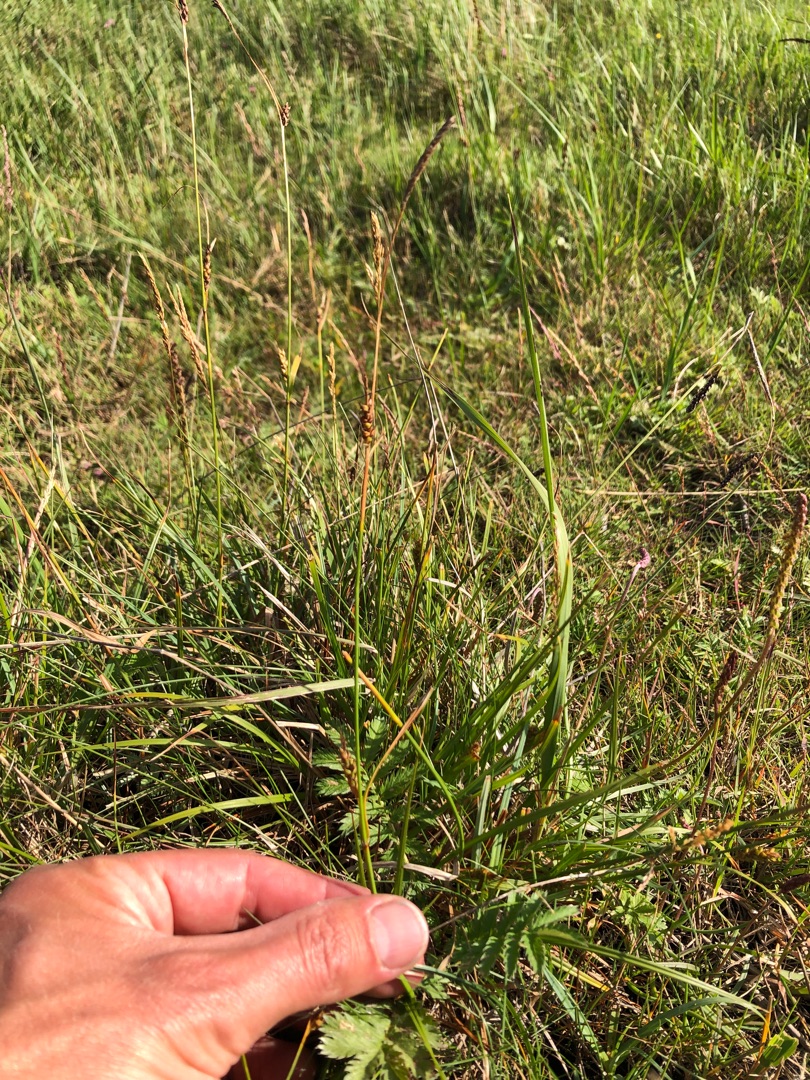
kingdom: Plantae
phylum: Tracheophyta
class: Liliopsida
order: Poales
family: Cyperaceae
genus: Carex
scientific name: Carex distans
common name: Fjernakset star
